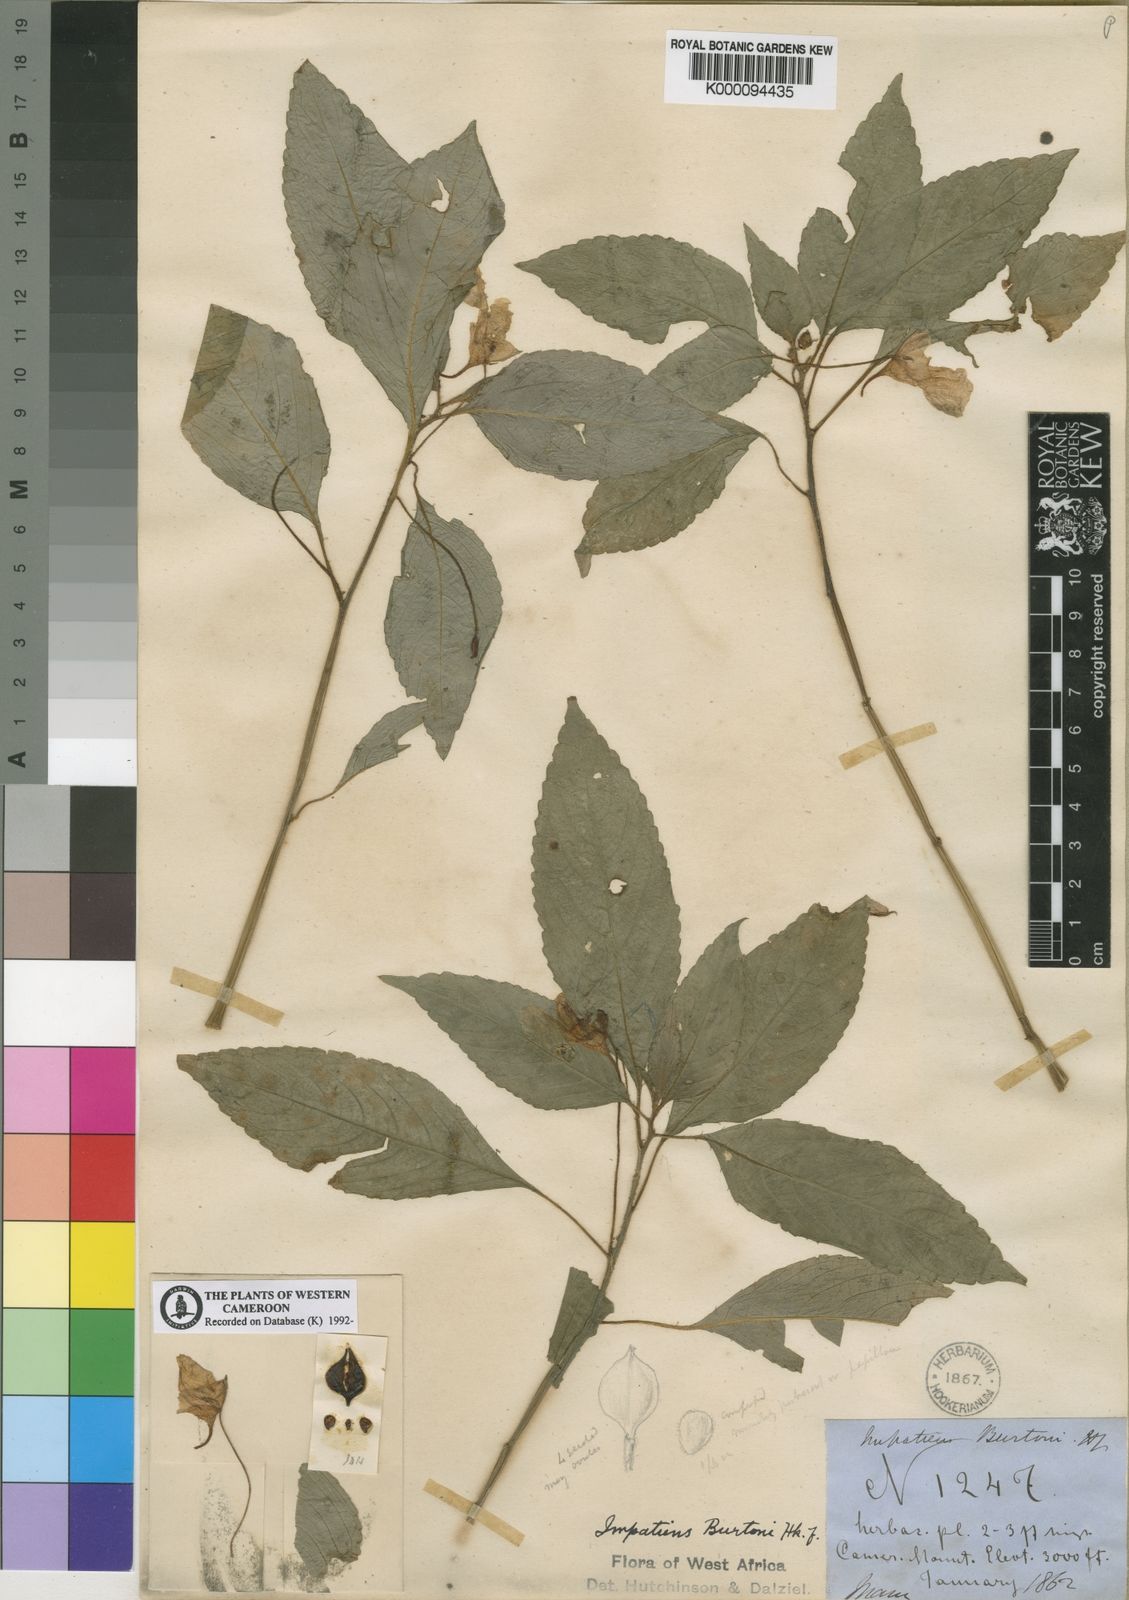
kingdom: Plantae
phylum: Tracheophyta
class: Magnoliopsida
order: Ericales
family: Balsaminaceae
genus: Impatiens
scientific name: Impatiens burtonii
